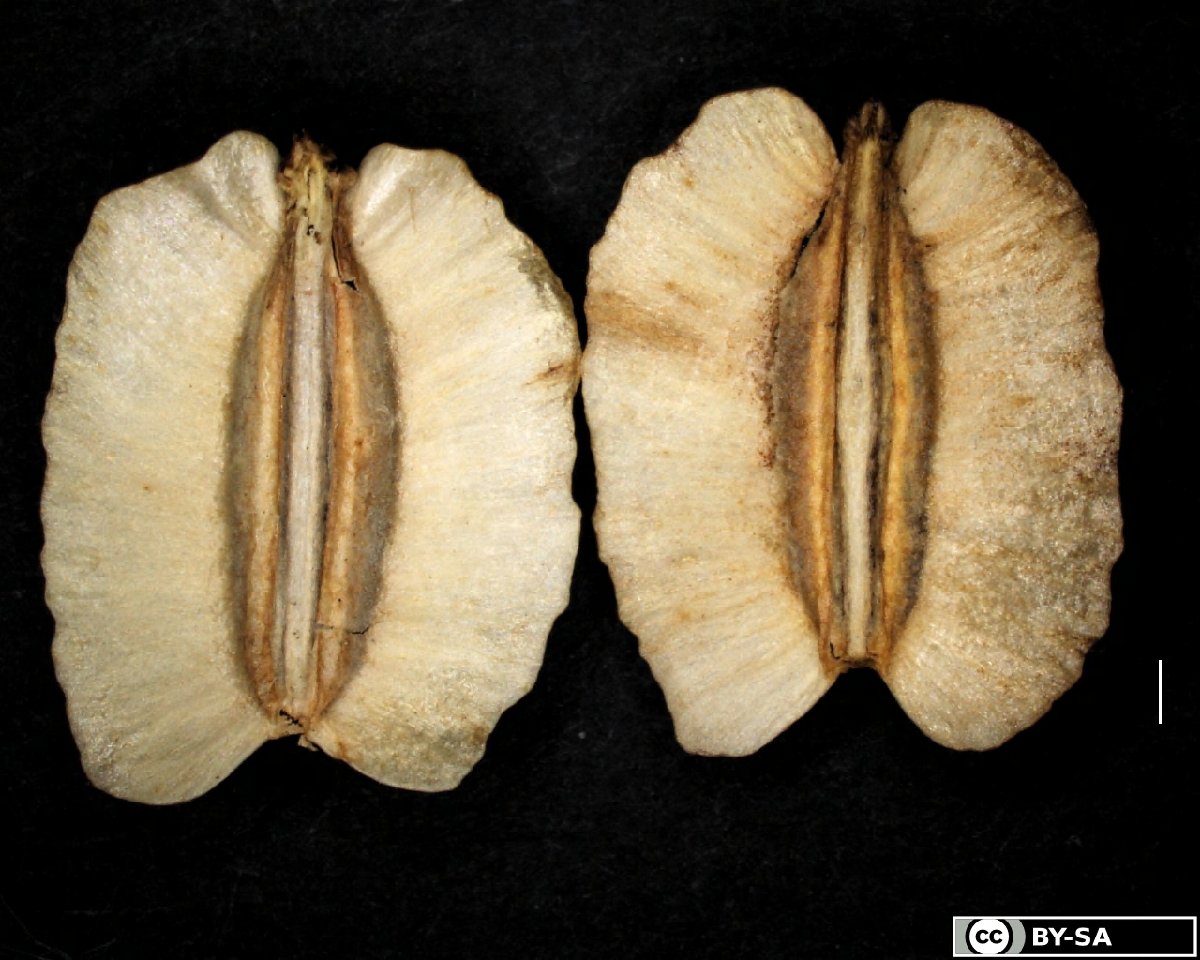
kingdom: Plantae
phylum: Tracheophyta
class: Magnoliopsida
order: Apiales
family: Apiaceae
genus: Laser
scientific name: Laser archangelica
